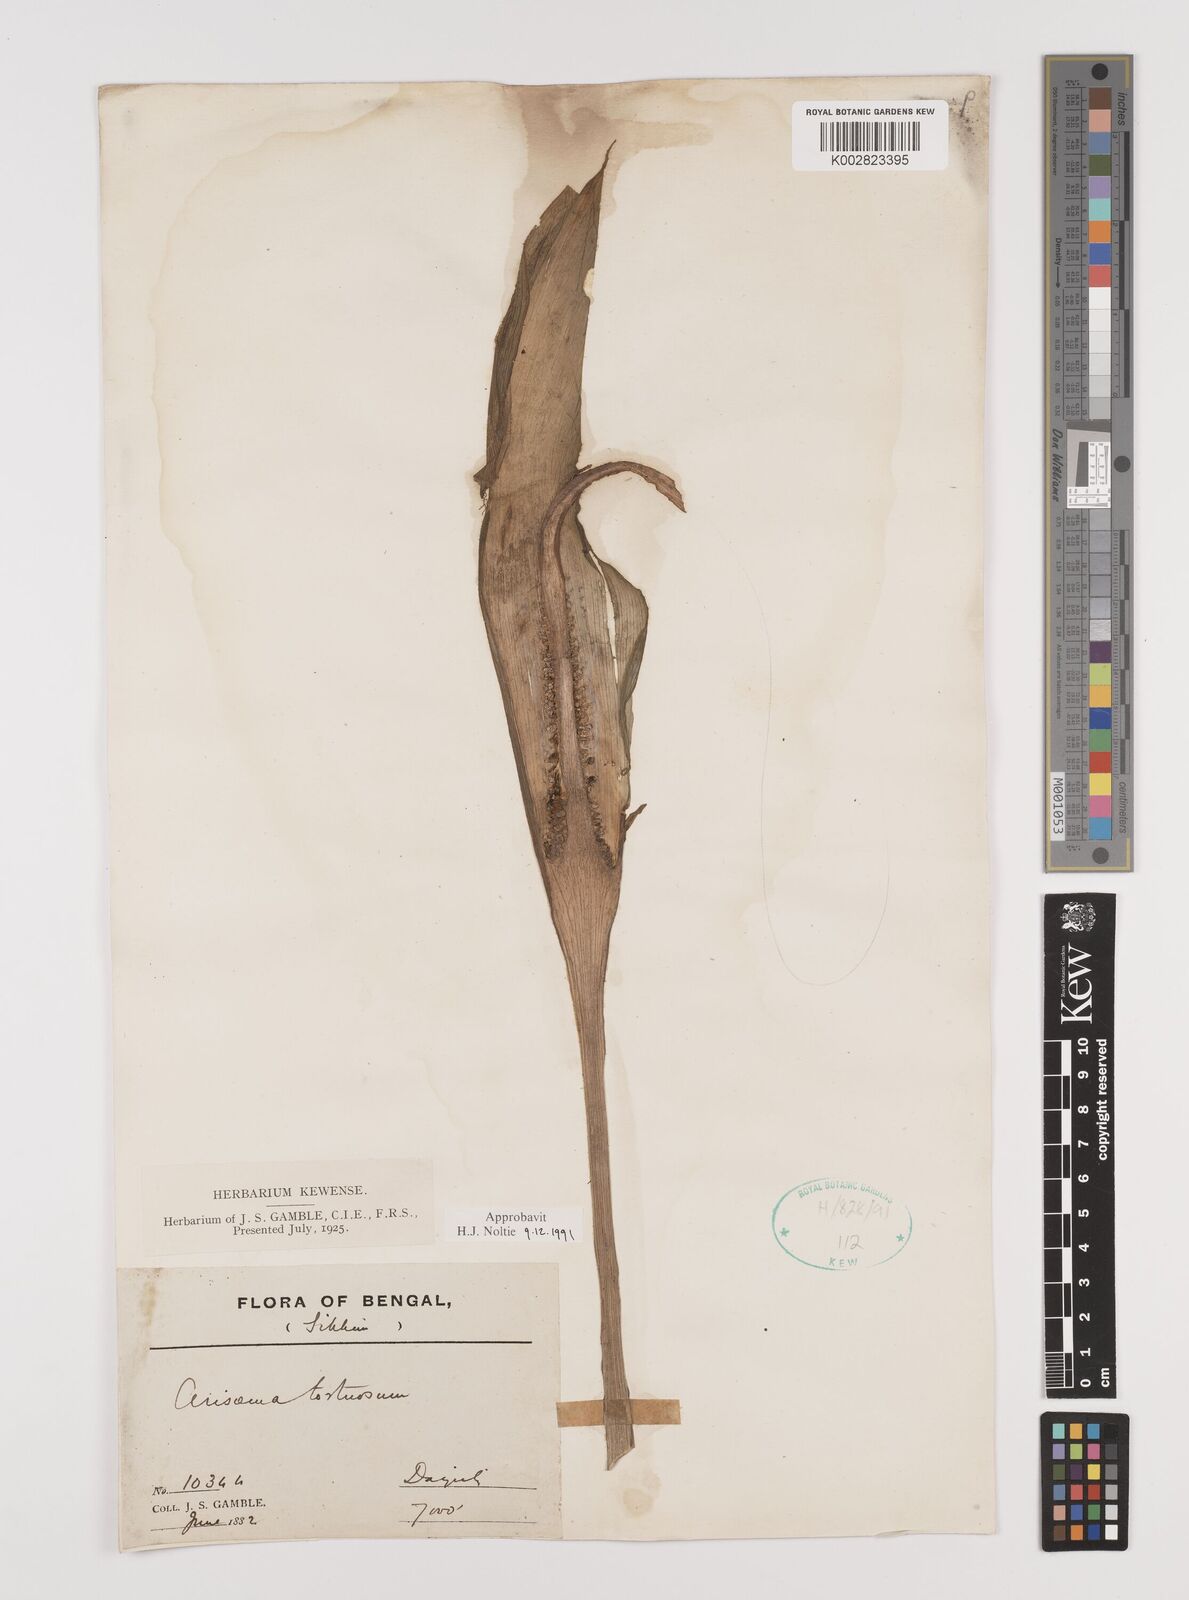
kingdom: Plantae
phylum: Tracheophyta
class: Liliopsida
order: Alismatales
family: Araceae
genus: Arisaema
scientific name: Arisaema tortuosum
